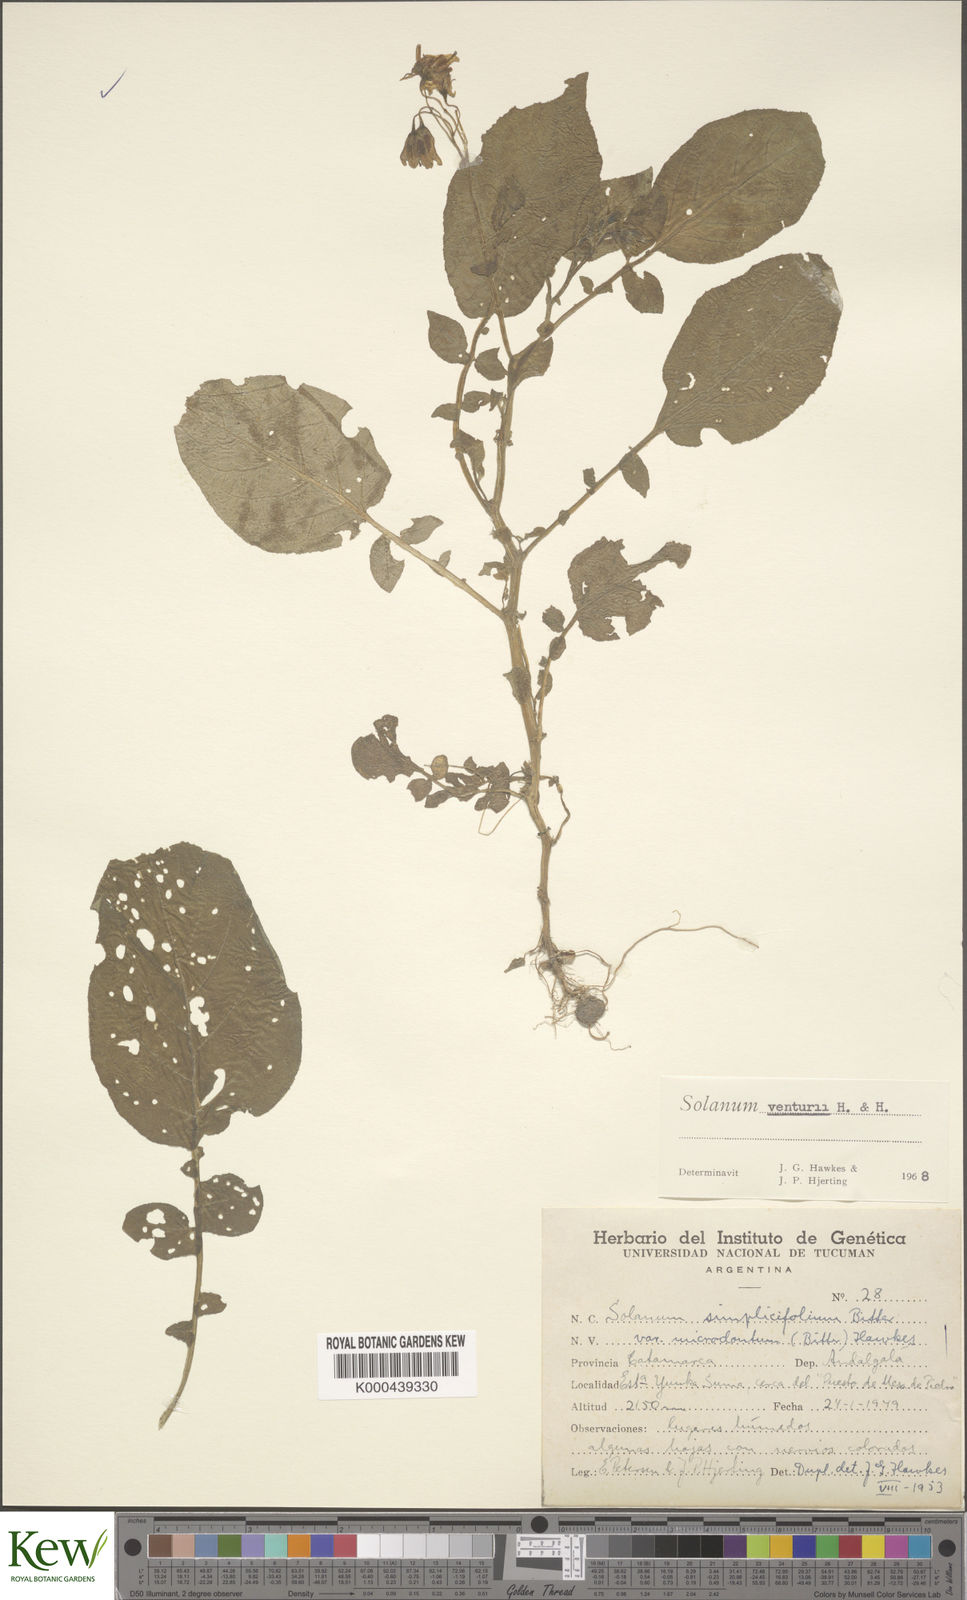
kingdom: Plantae
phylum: Tracheophyta
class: Magnoliopsida
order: Solanales
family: Solanaceae
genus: Solanum
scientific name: Solanum venturii
